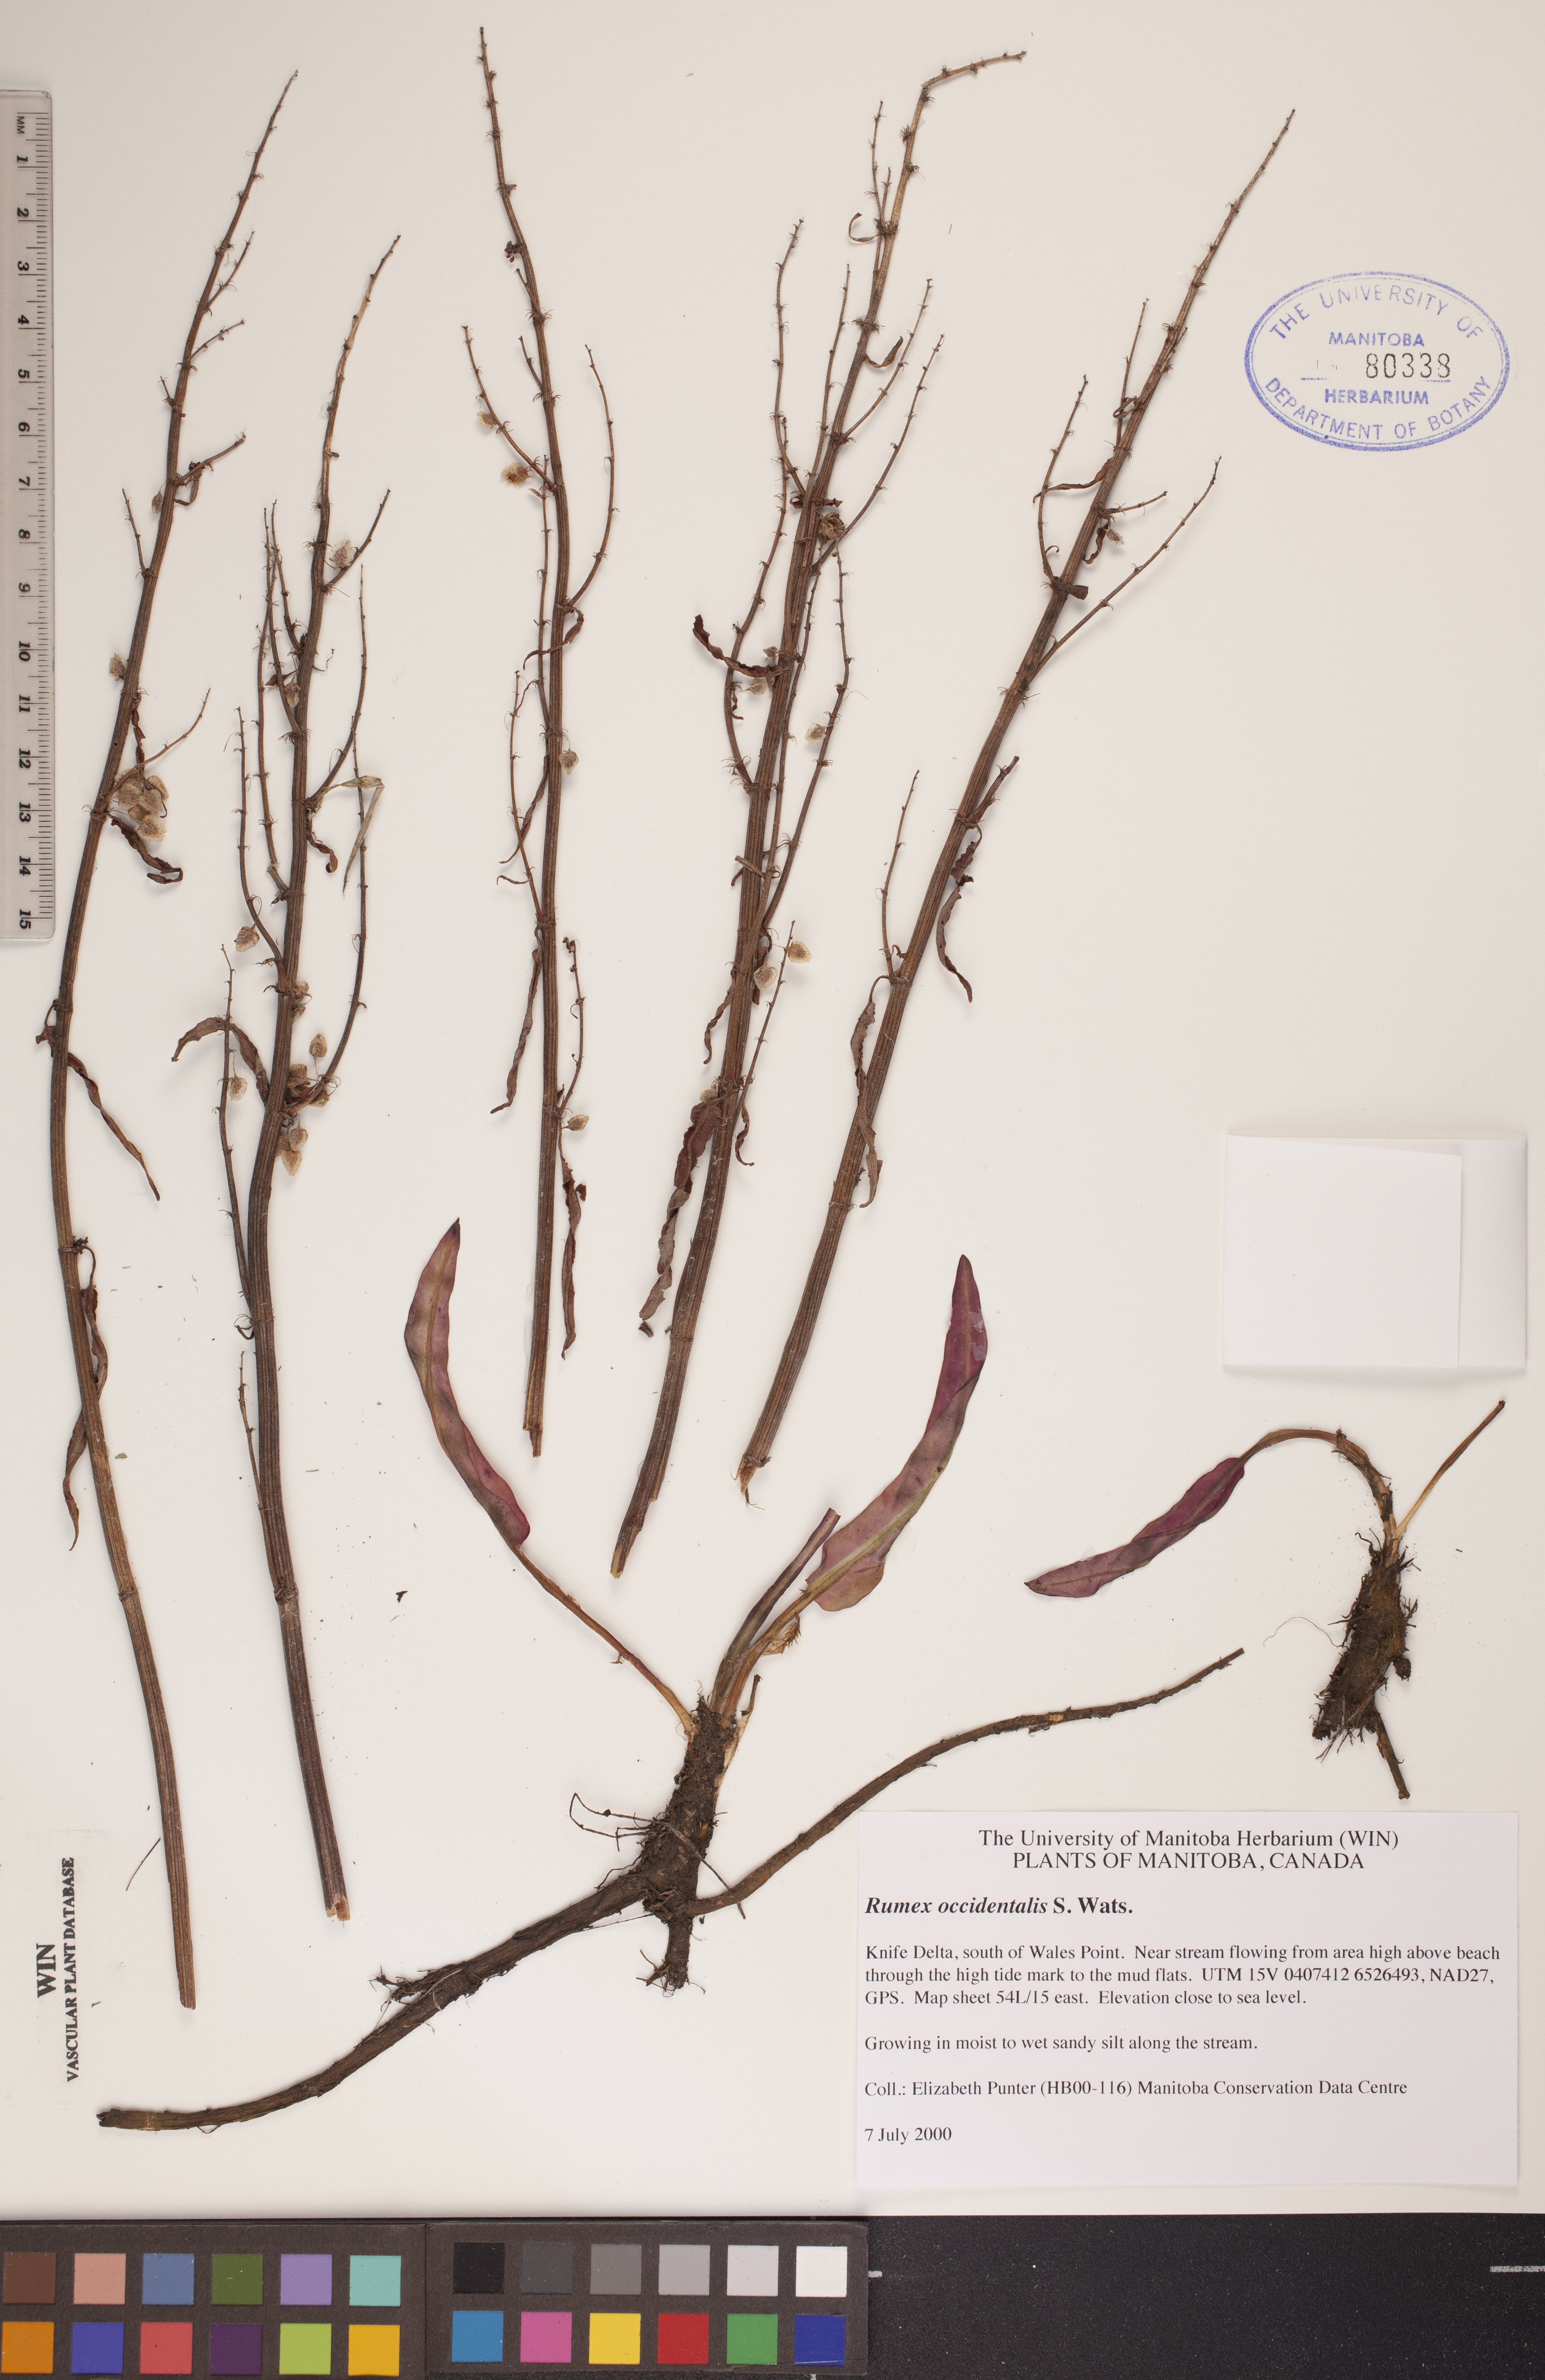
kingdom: Plantae
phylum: Tracheophyta
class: Magnoliopsida
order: Caryophyllales
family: Polygonaceae
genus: Rumex
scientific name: Rumex occidentalis
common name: Western dock
